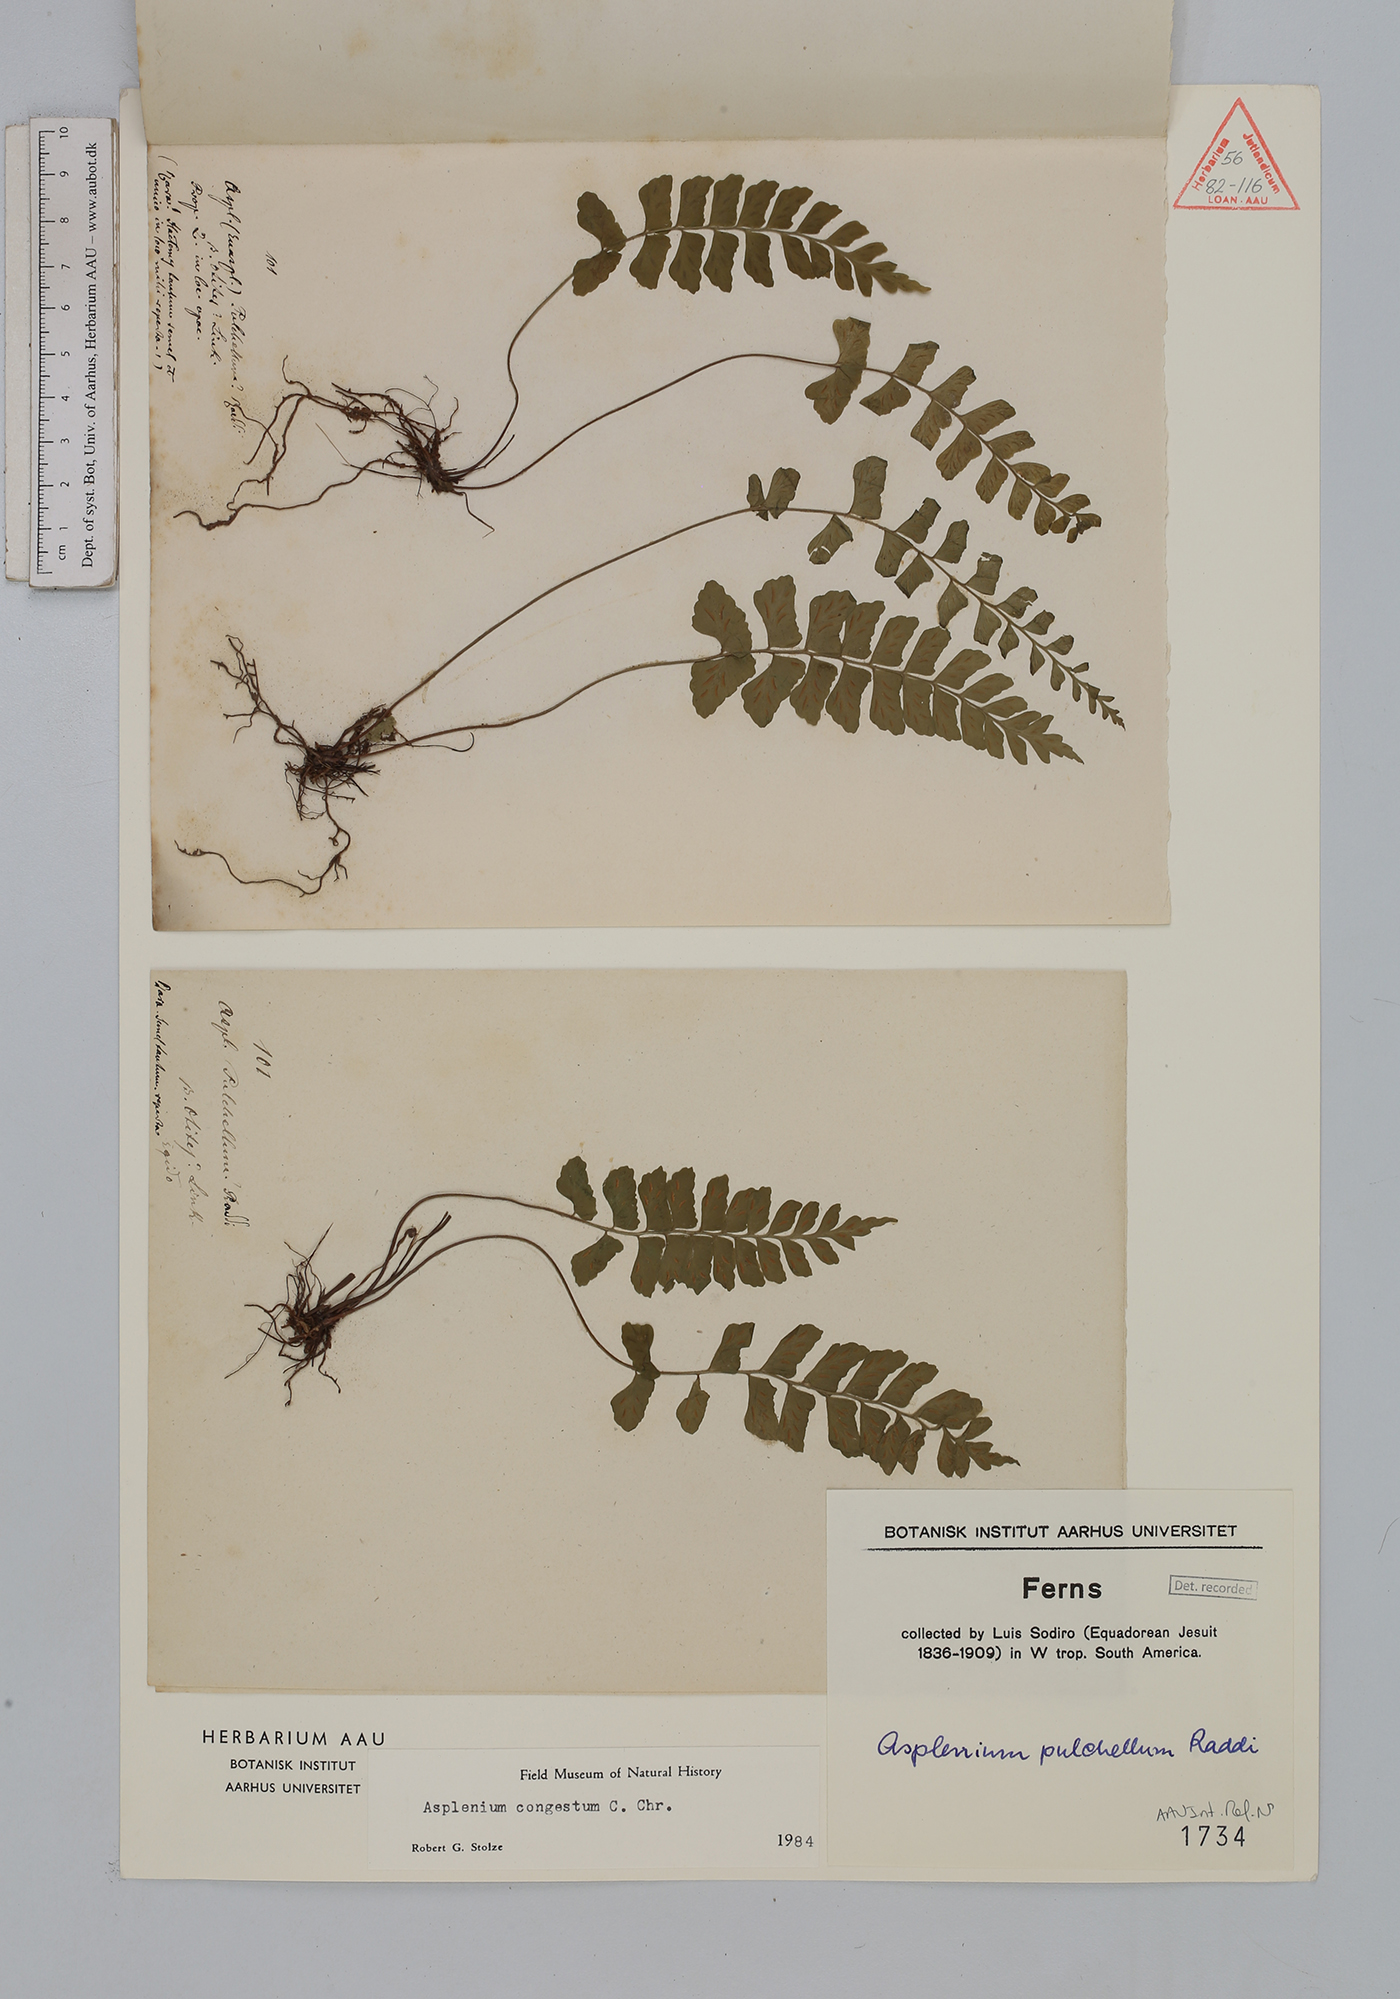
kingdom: Plantae
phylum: Tracheophyta
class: Polypodiopsida
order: Polypodiales
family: Aspleniaceae
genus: Asplenium
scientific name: Asplenium congestum
